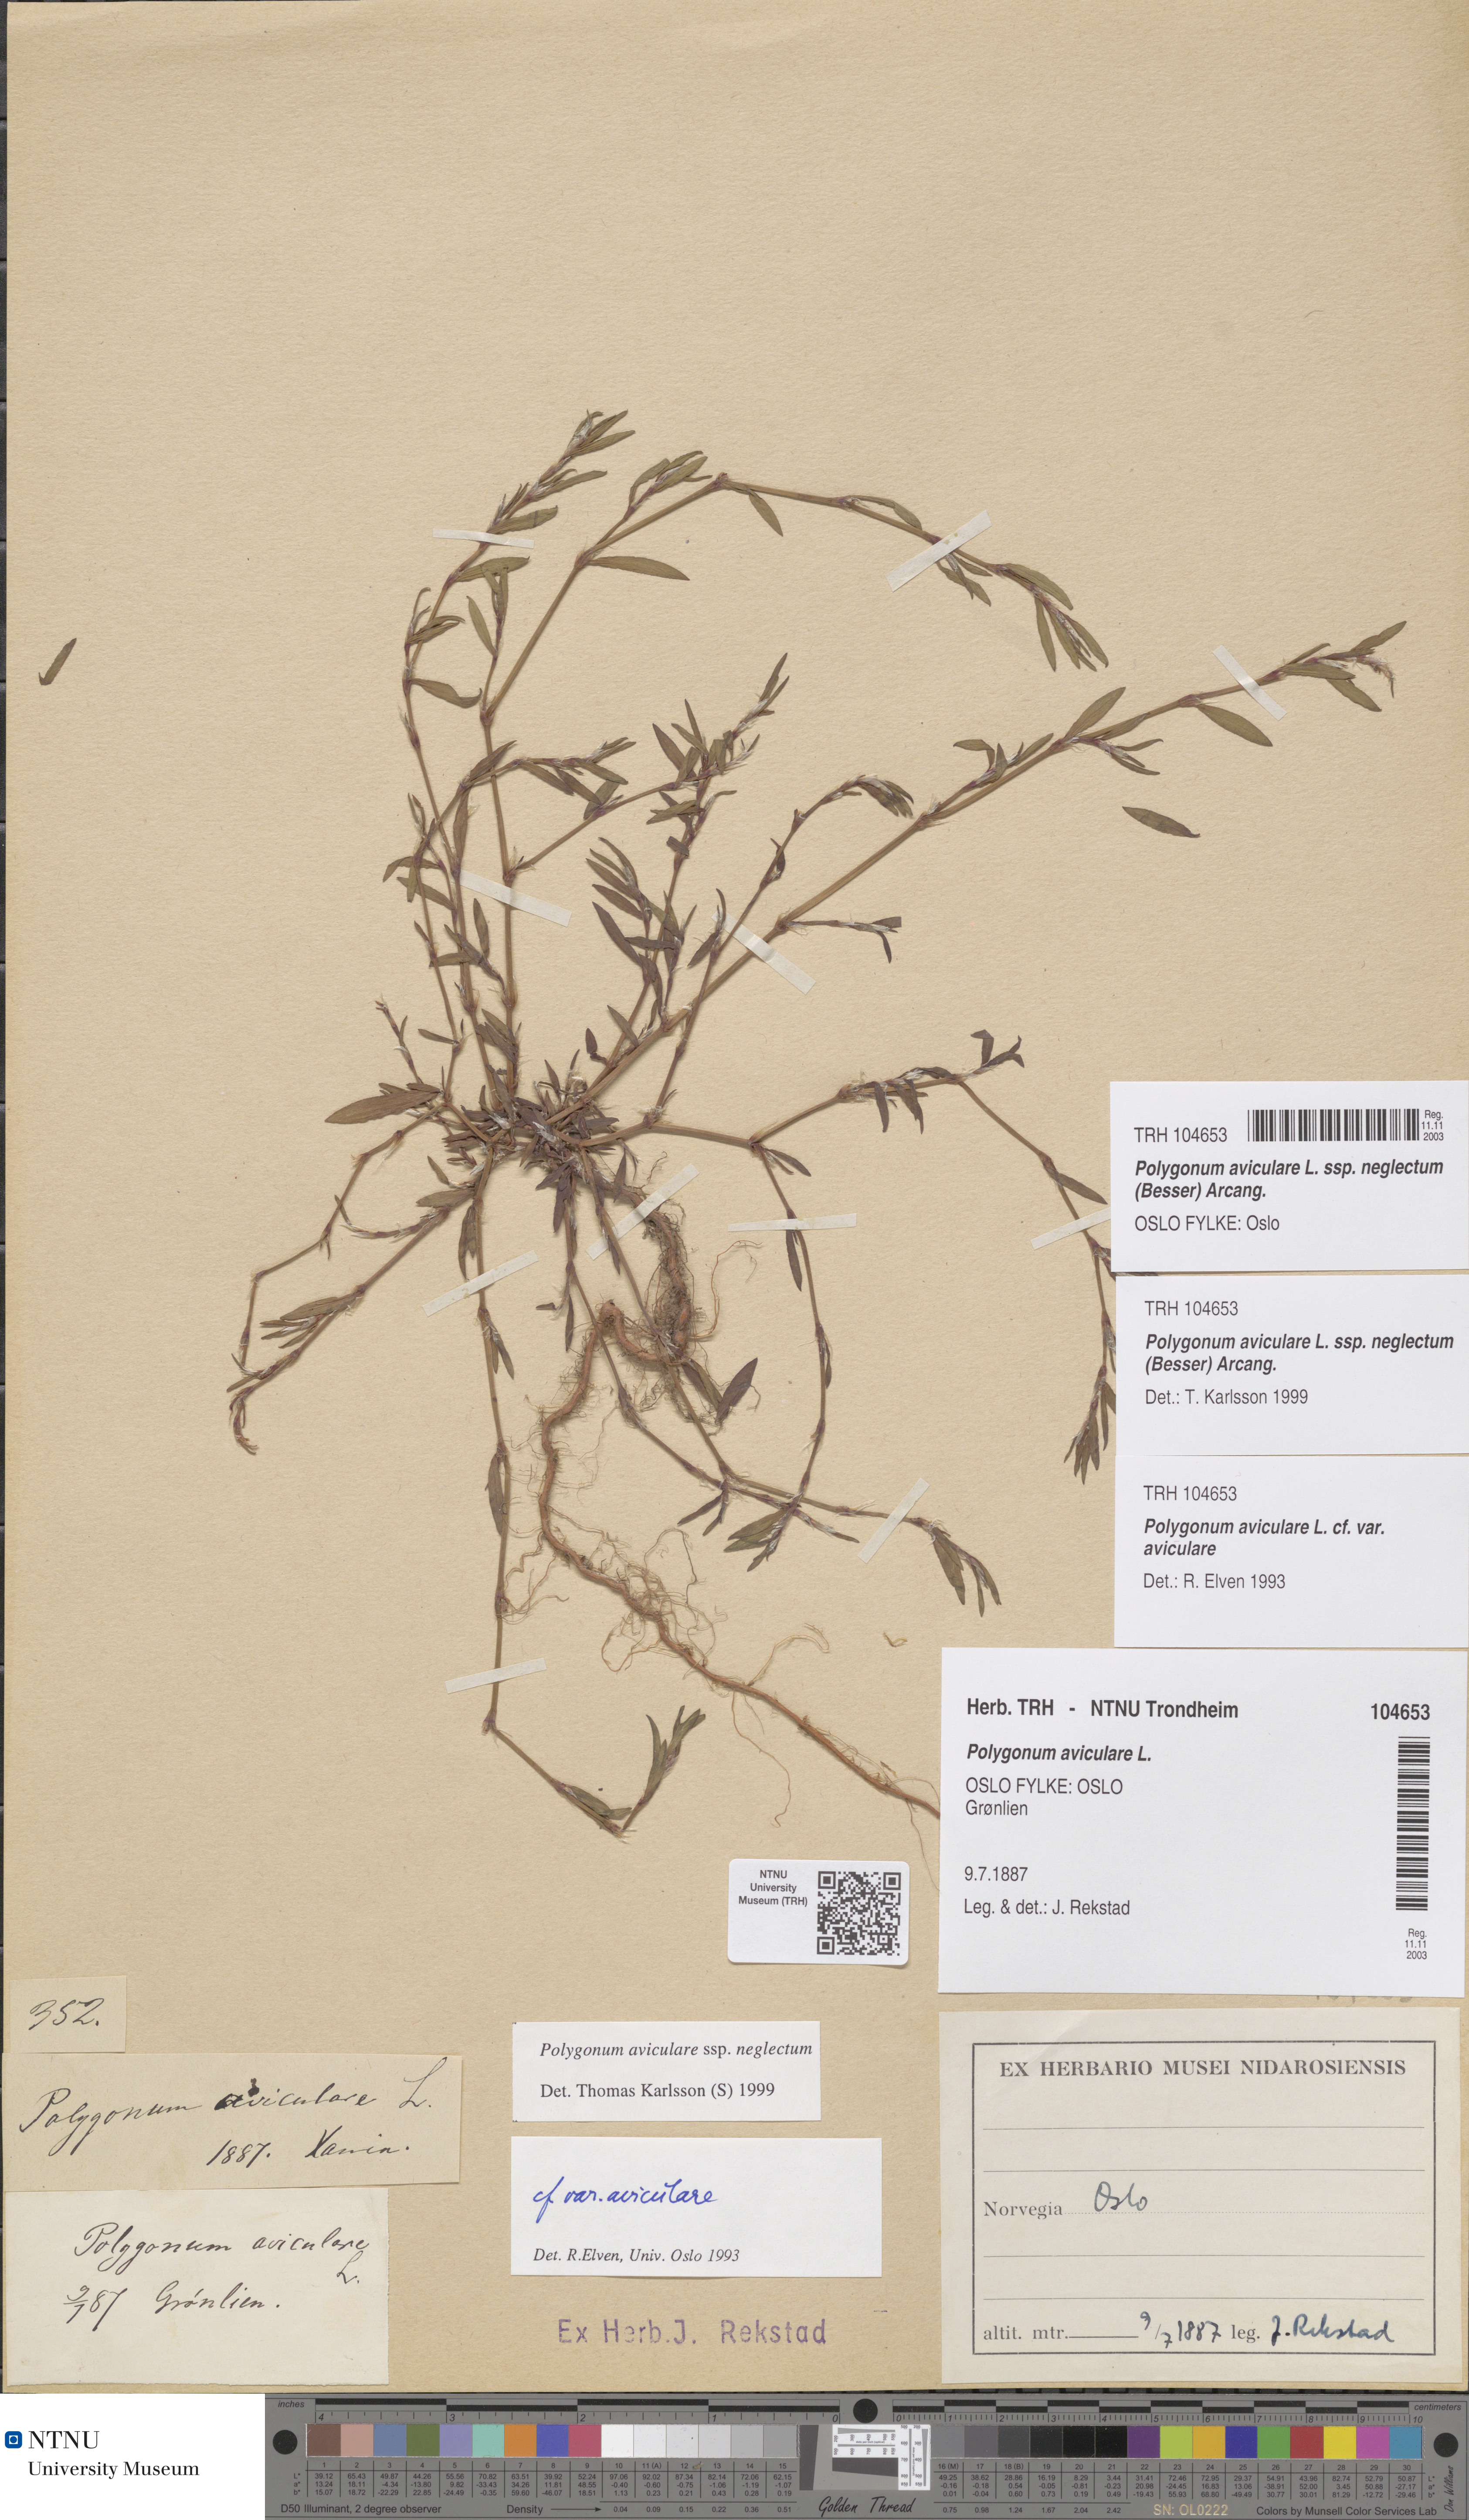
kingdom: Plantae
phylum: Tracheophyta
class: Magnoliopsida
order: Caryophyllales
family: Polygonaceae
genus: Polygonum
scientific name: Polygonum aviculare
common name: Prostrate knotweed
